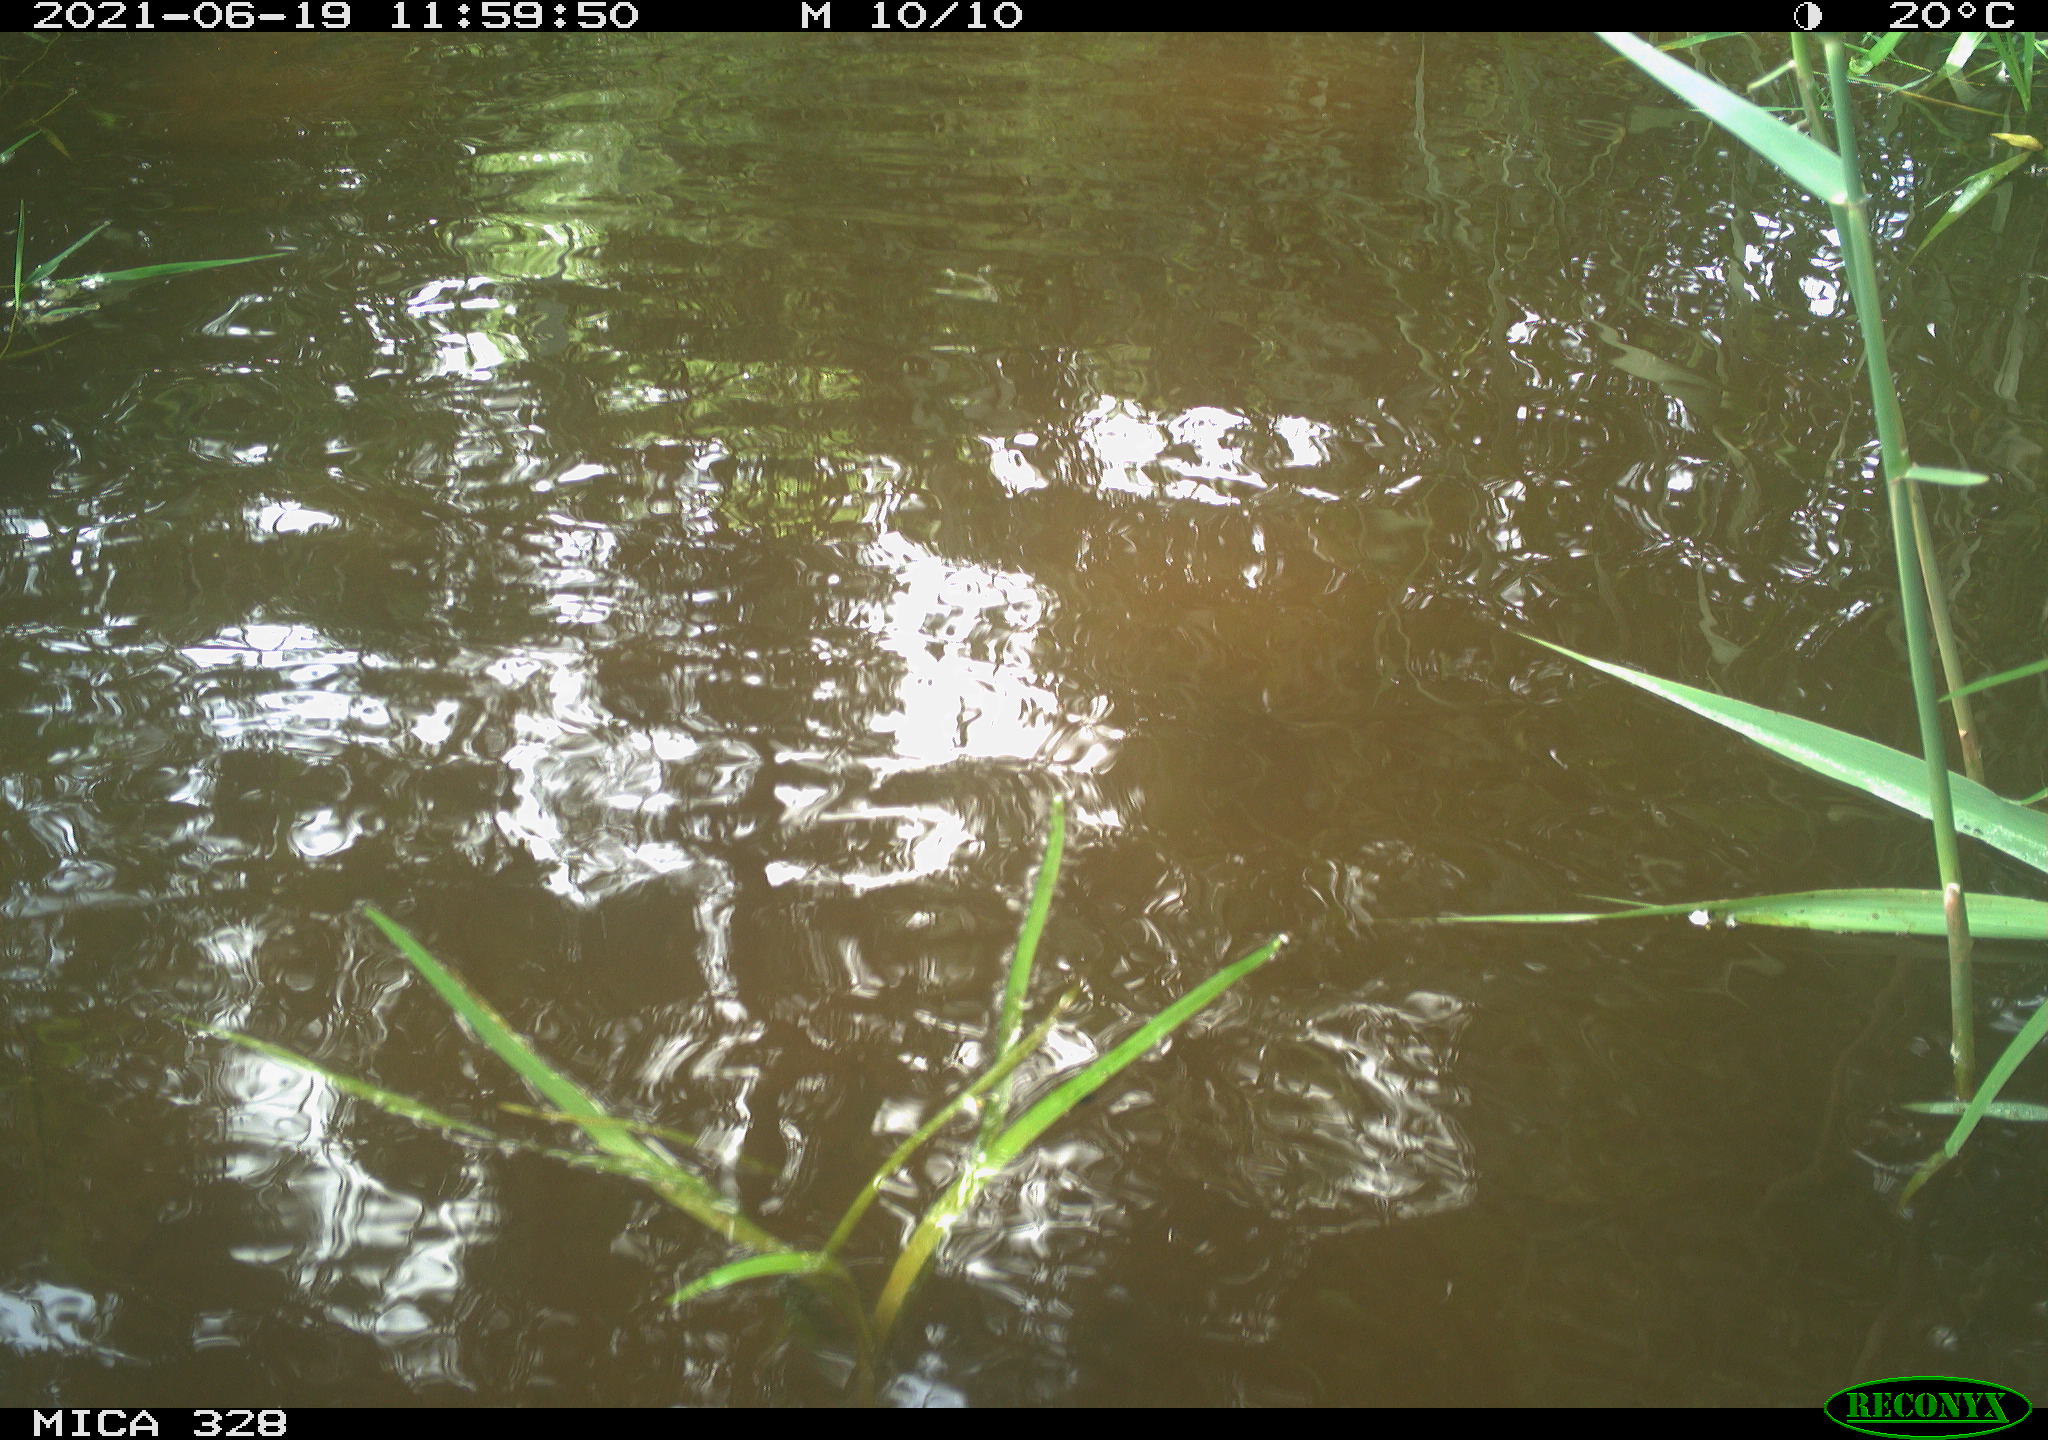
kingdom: Animalia
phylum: Chordata
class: Aves
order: Anseriformes
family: Anatidae
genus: Aix
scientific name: Aix galericulata
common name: Mandarin duck
